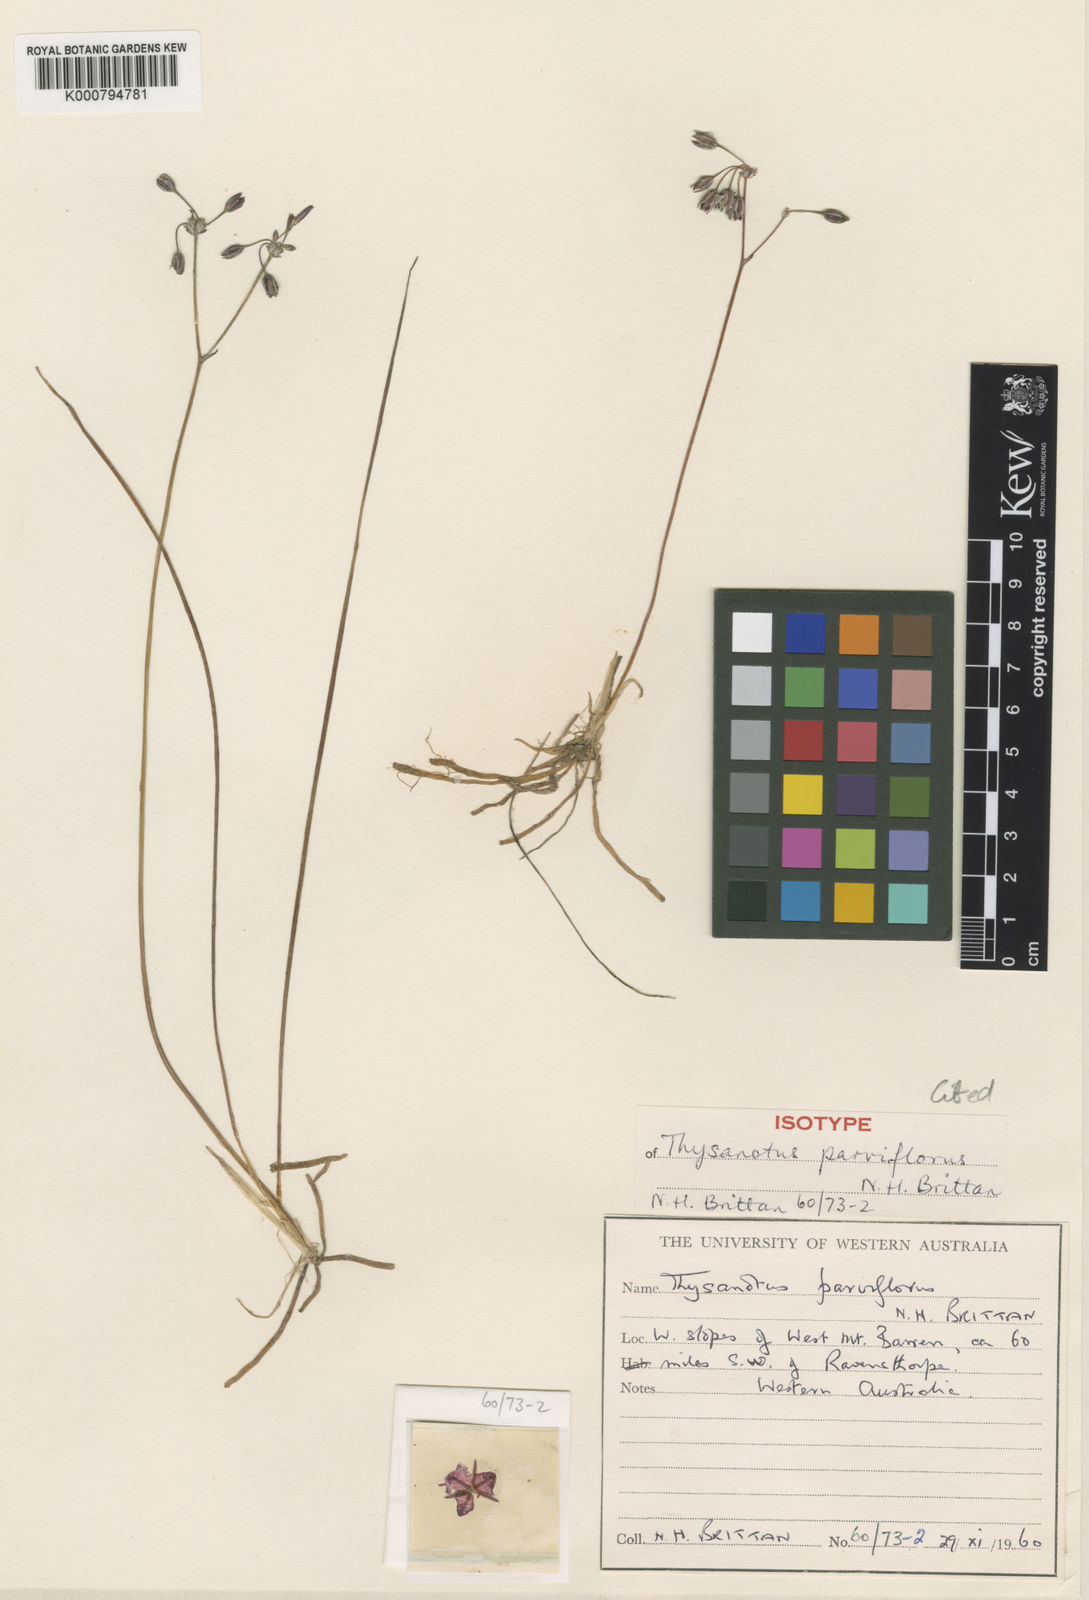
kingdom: Plantae
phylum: Tracheophyta
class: Liliopsida
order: Asparagales
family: Asparagaceae
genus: Thysanotus
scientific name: Thysanotus parviflorus
